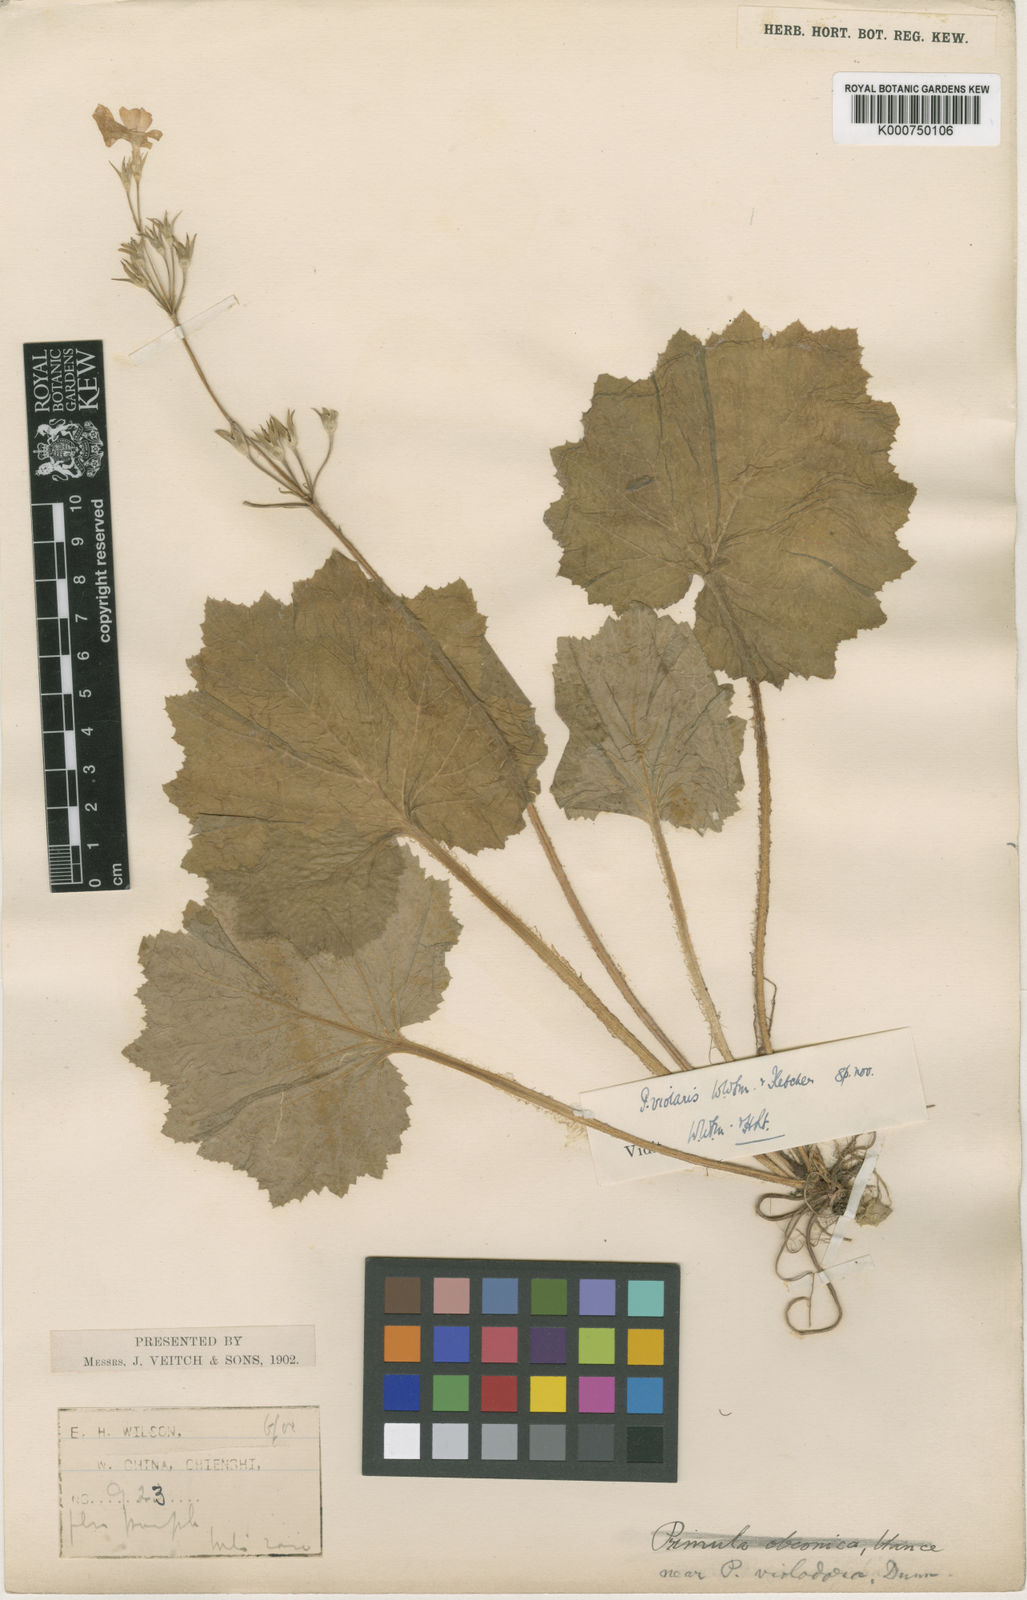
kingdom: Plantae
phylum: Tracheophyta
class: Magnoliopsida
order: Ericales
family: Primulaceae
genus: Primula
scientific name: Primula violaris
